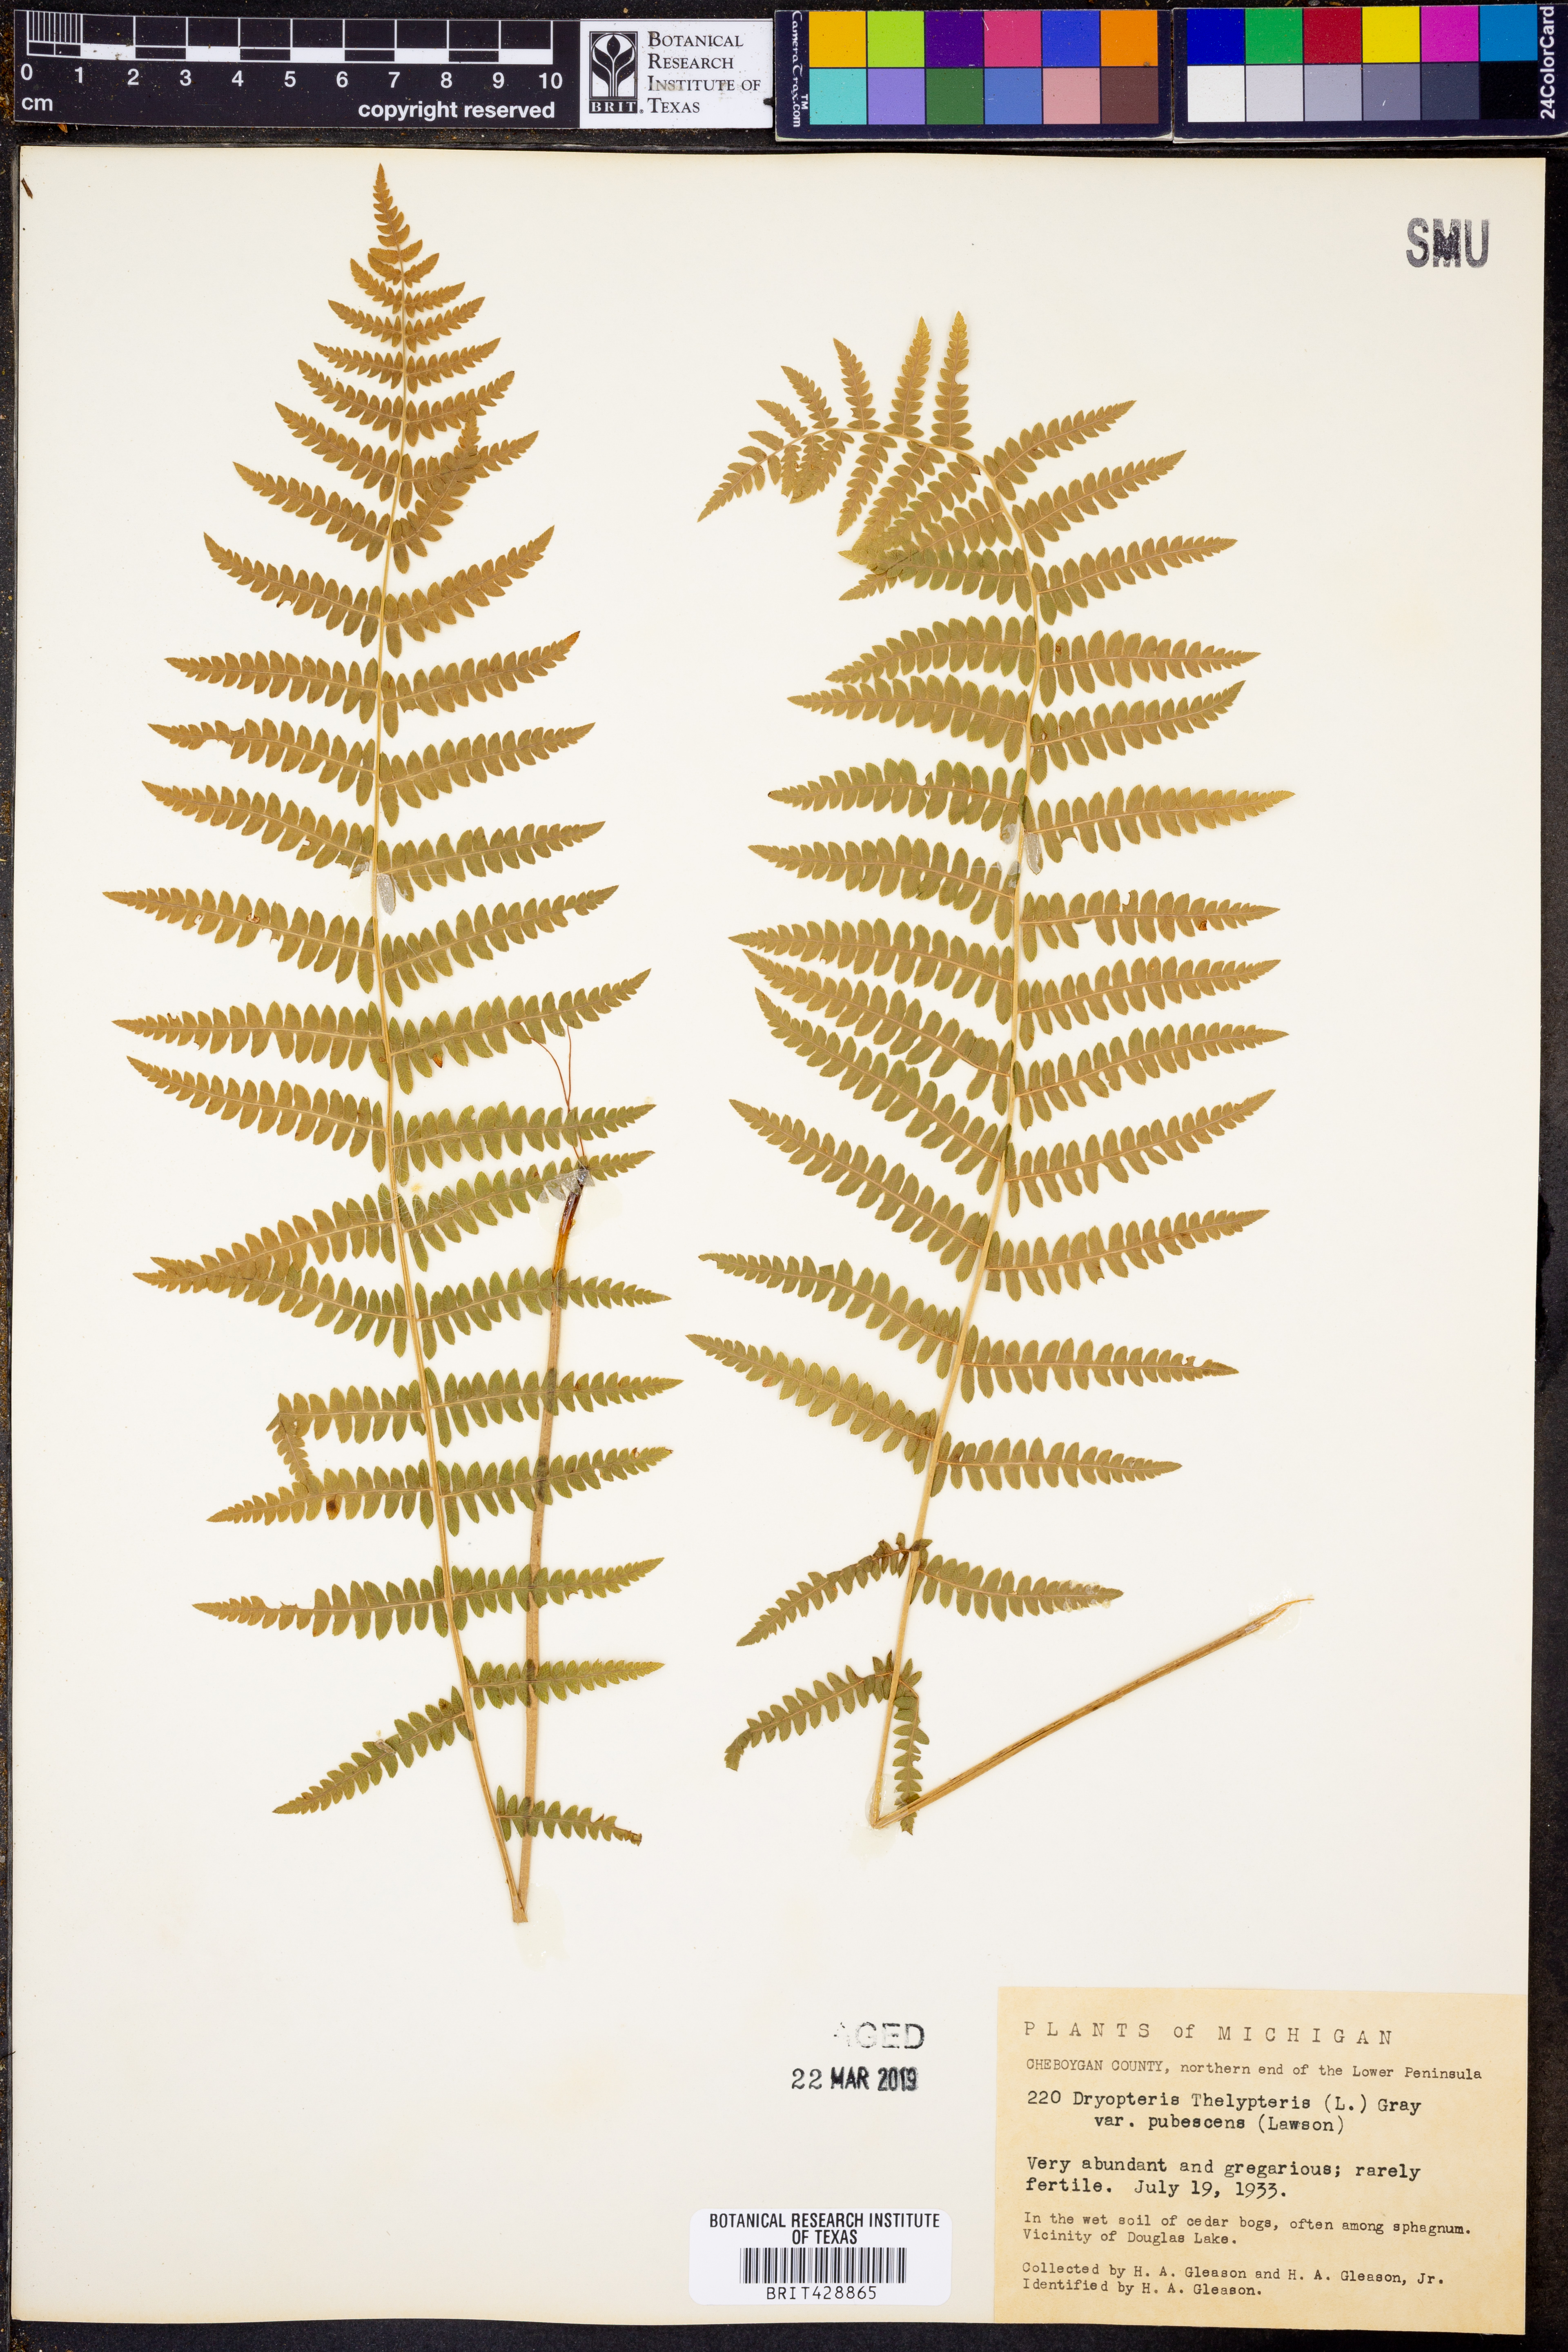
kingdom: Plantae
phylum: Tracheophyta
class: Polypodiopsida
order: Polypodiales
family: Thelypteridaceae
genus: Thelypteris
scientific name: Thelypteris palustris
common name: Marsh fern
